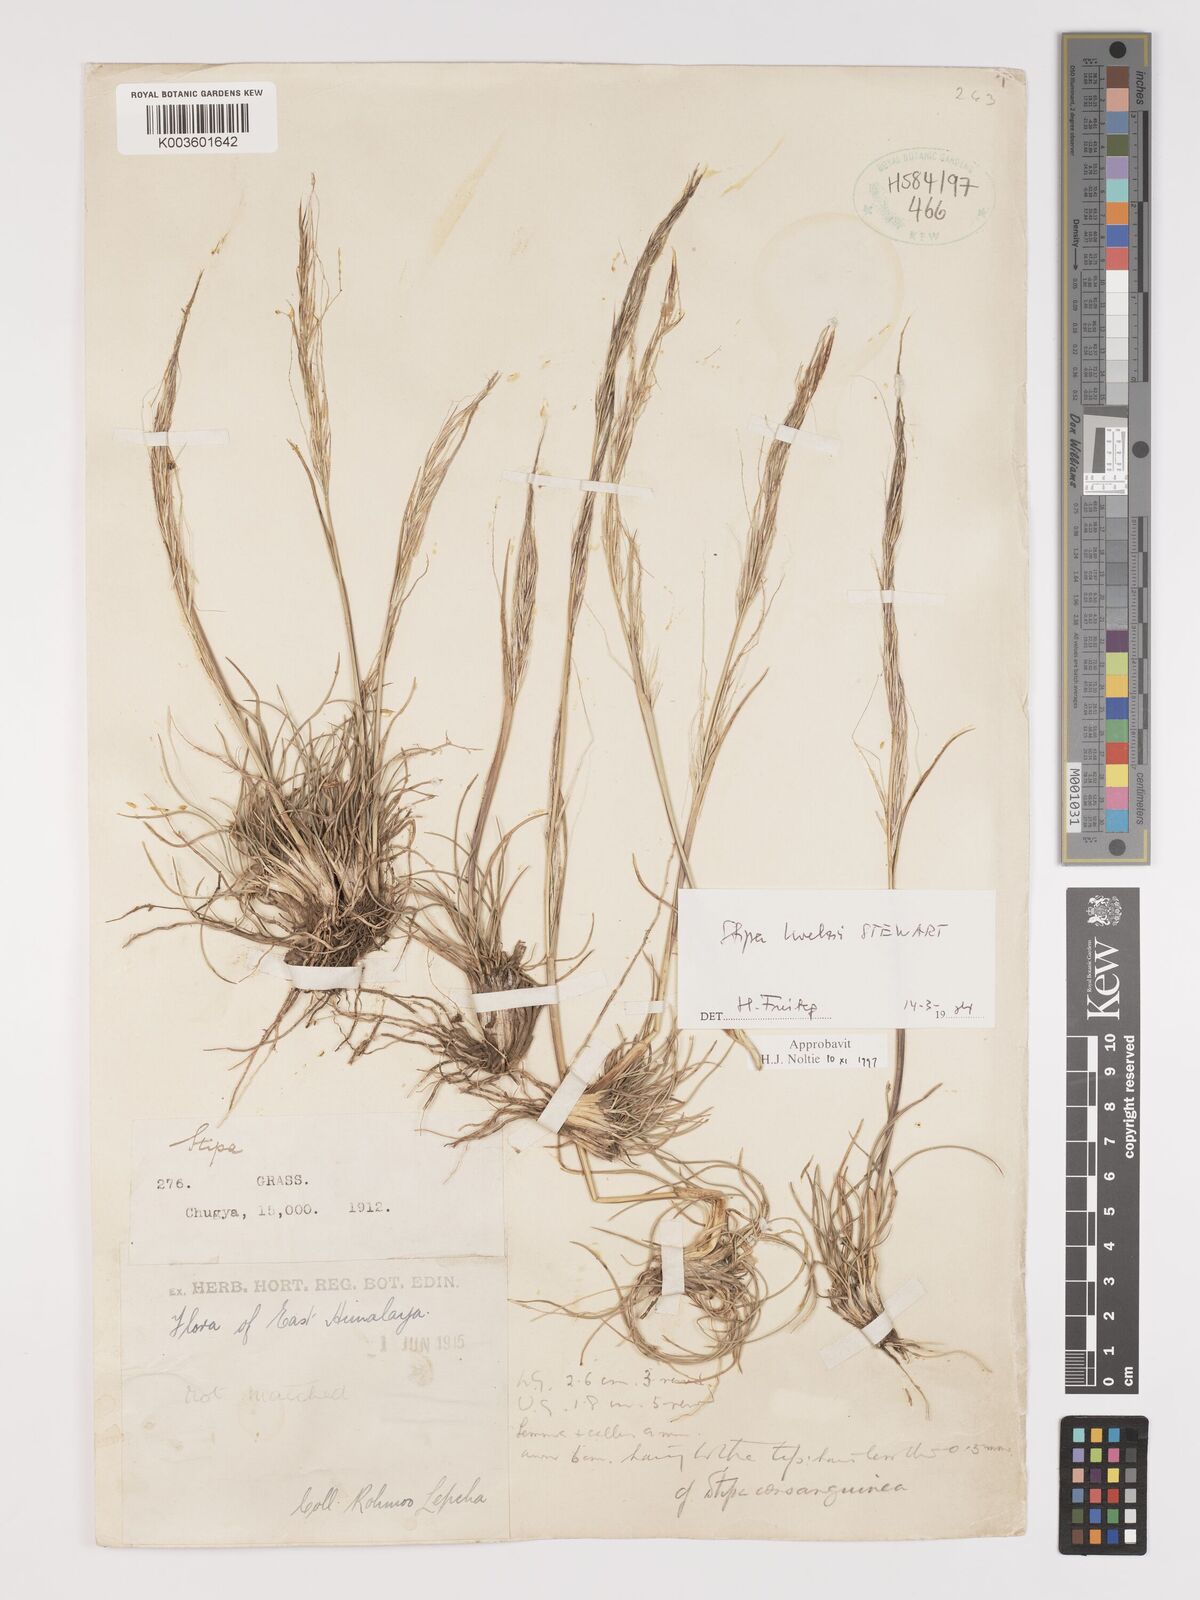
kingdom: Plantae
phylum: Tracheophyta
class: Liliopsida
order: Poales
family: Poaceae
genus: Stipa
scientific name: Stipa capillacea
